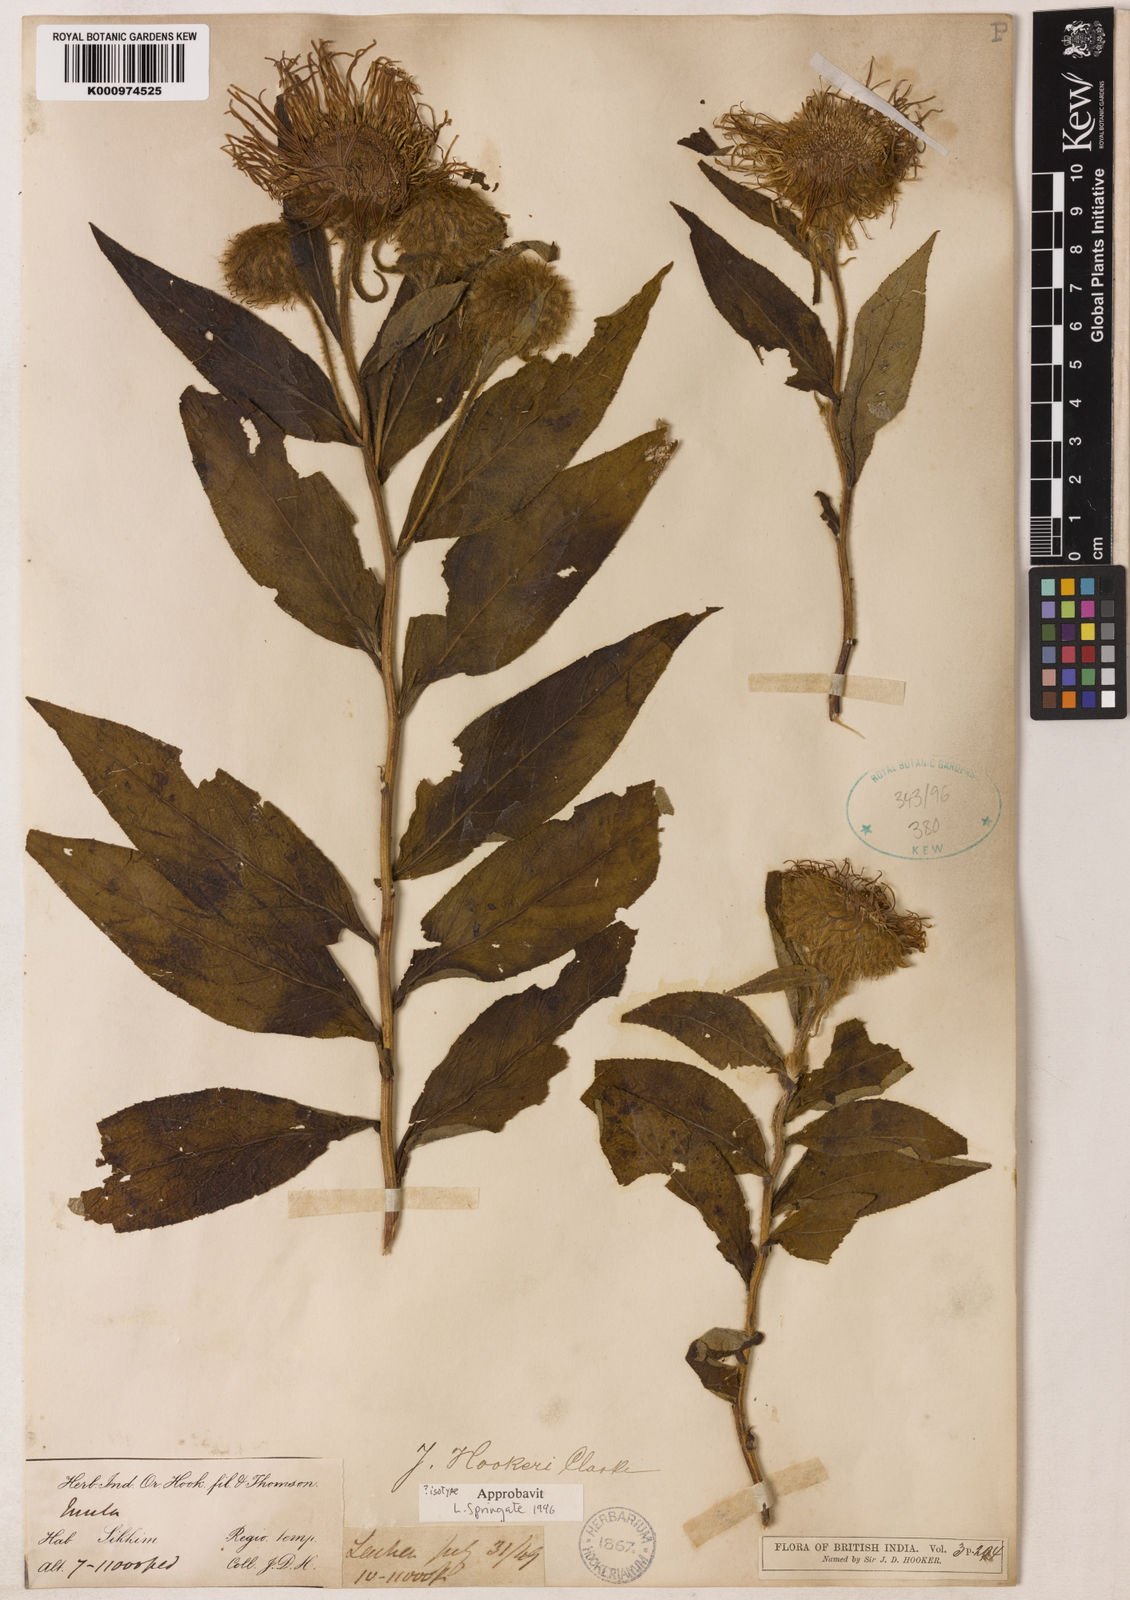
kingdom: Plantae
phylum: Tracheophyta
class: Magnoliopsida
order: Asterales
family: Asteraceae
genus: Inula
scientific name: Inula hookeri
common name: Hooker's-fleabane
